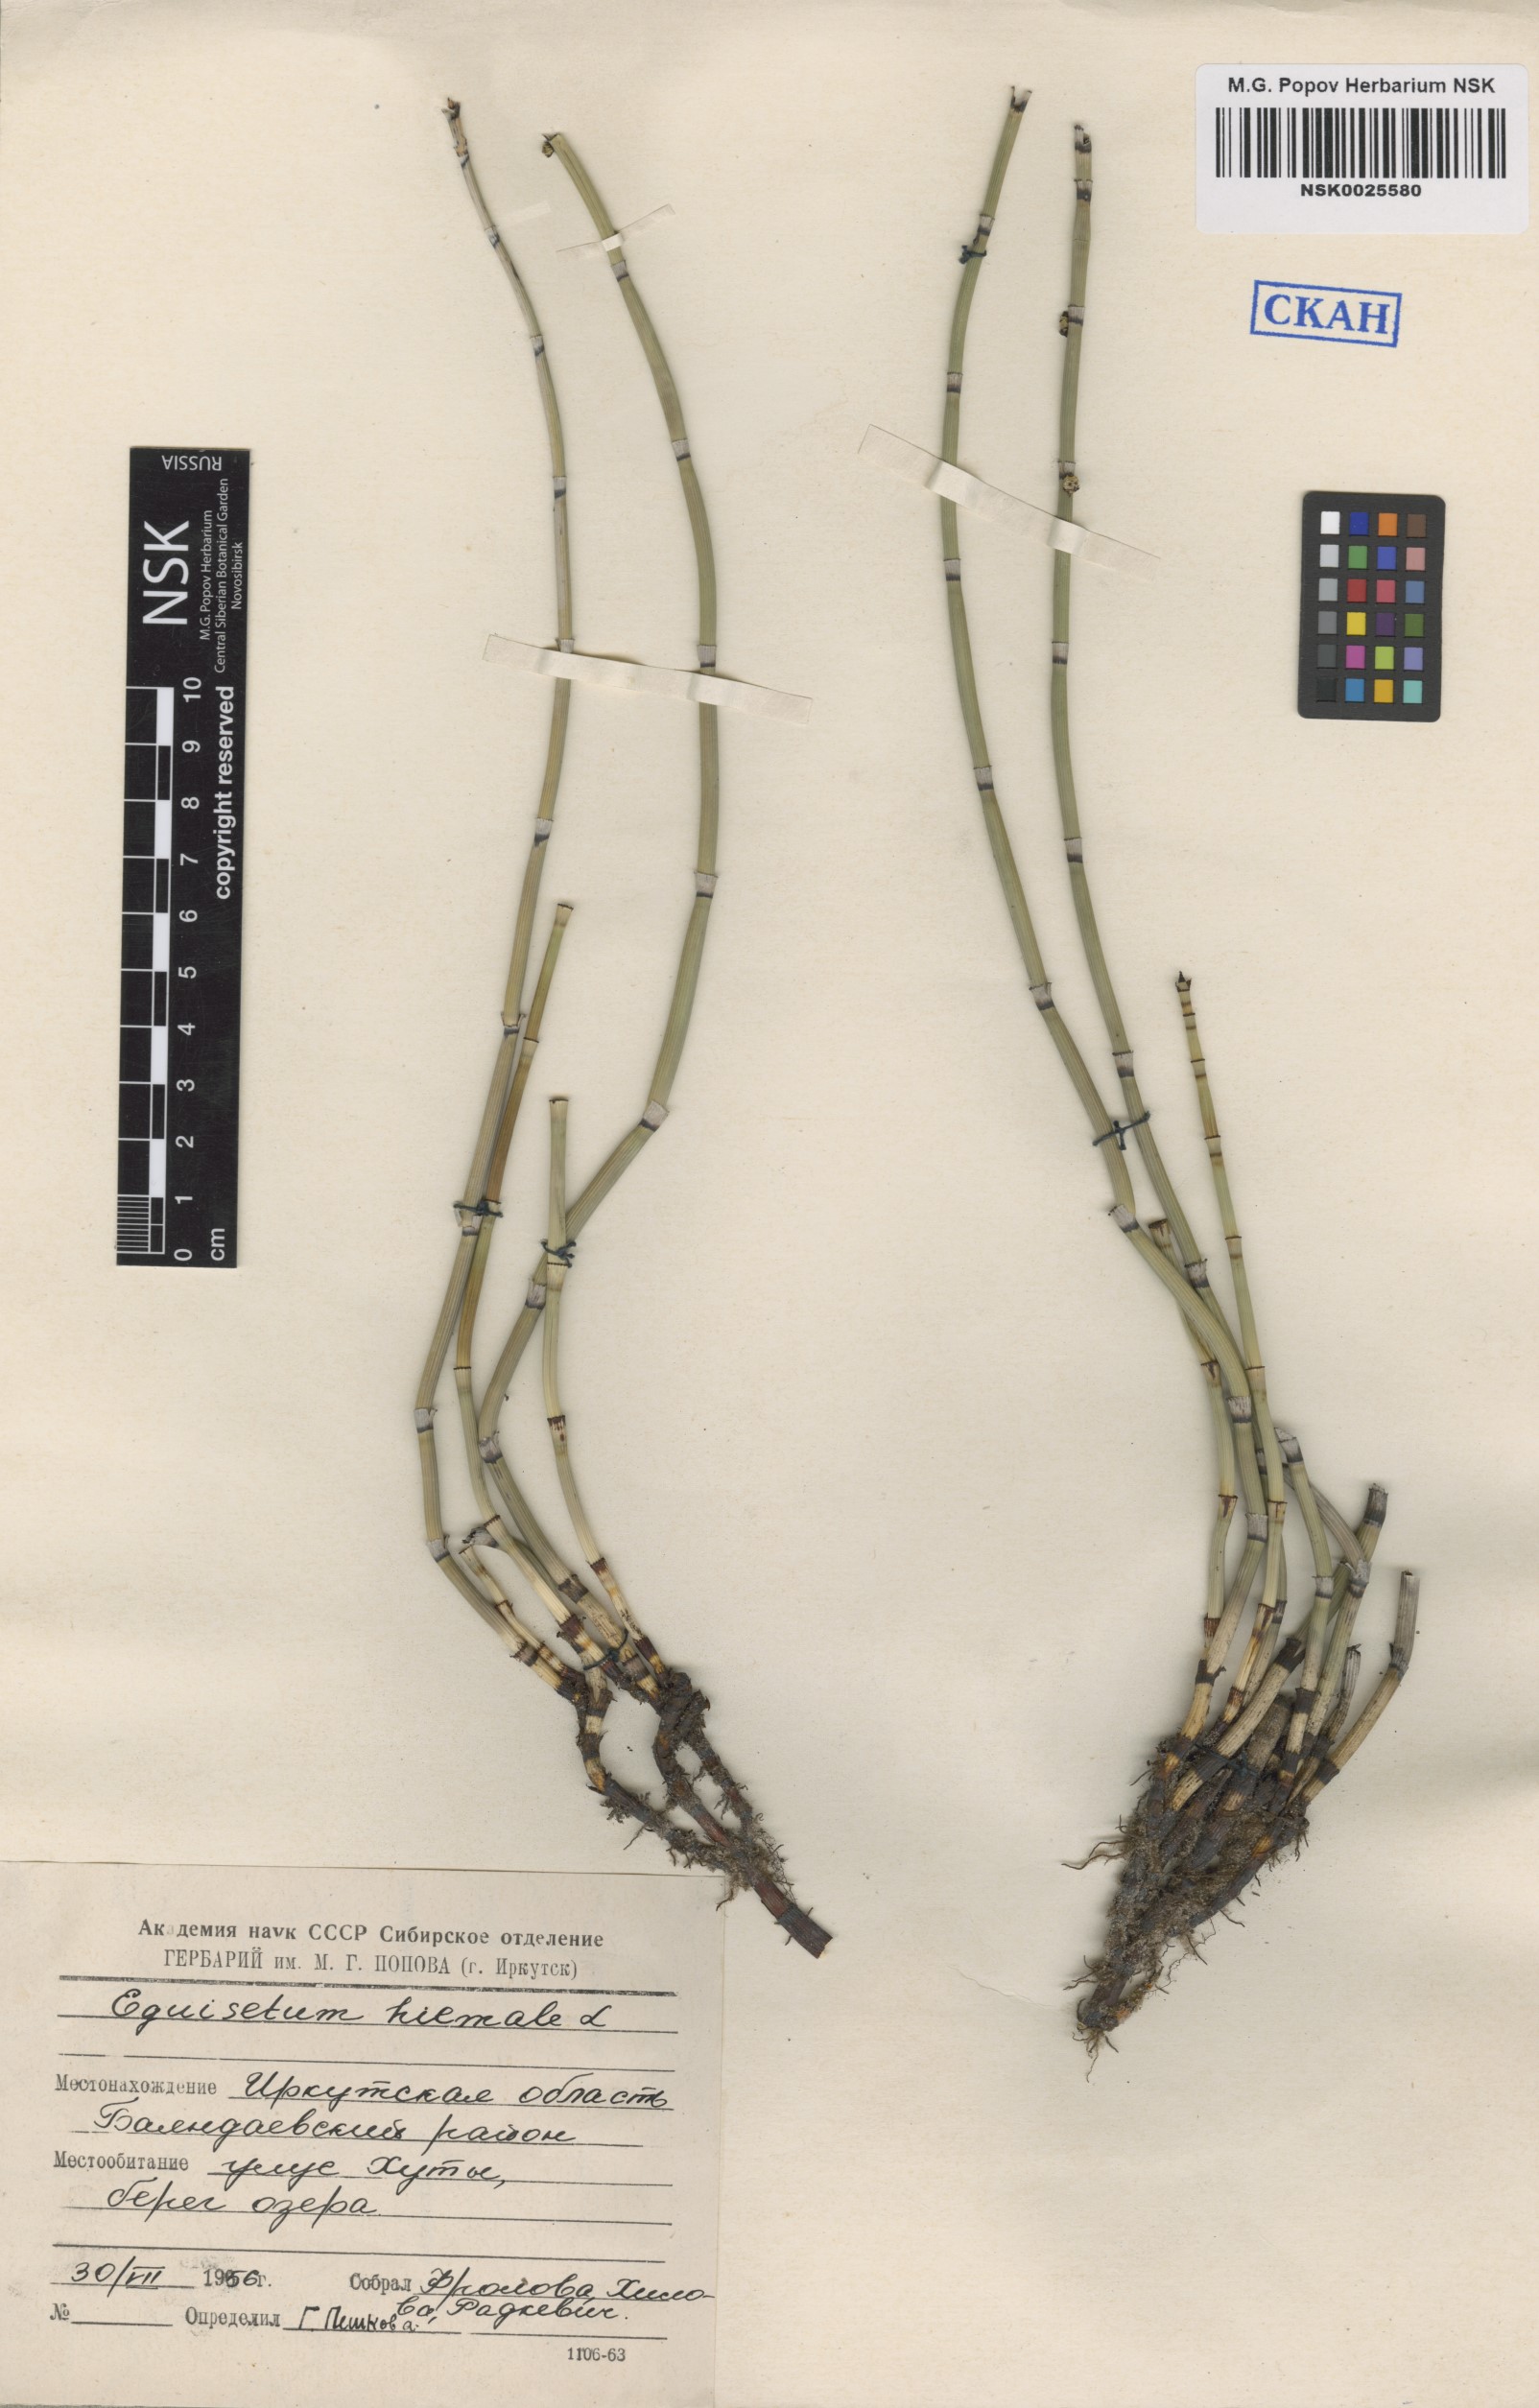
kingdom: Plantae
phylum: Tracheophyta
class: Polypodiopsida
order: Equisetales
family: Equisetaceae
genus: Equisetum
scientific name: Equisetum hyemale
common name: Rough horsetail
